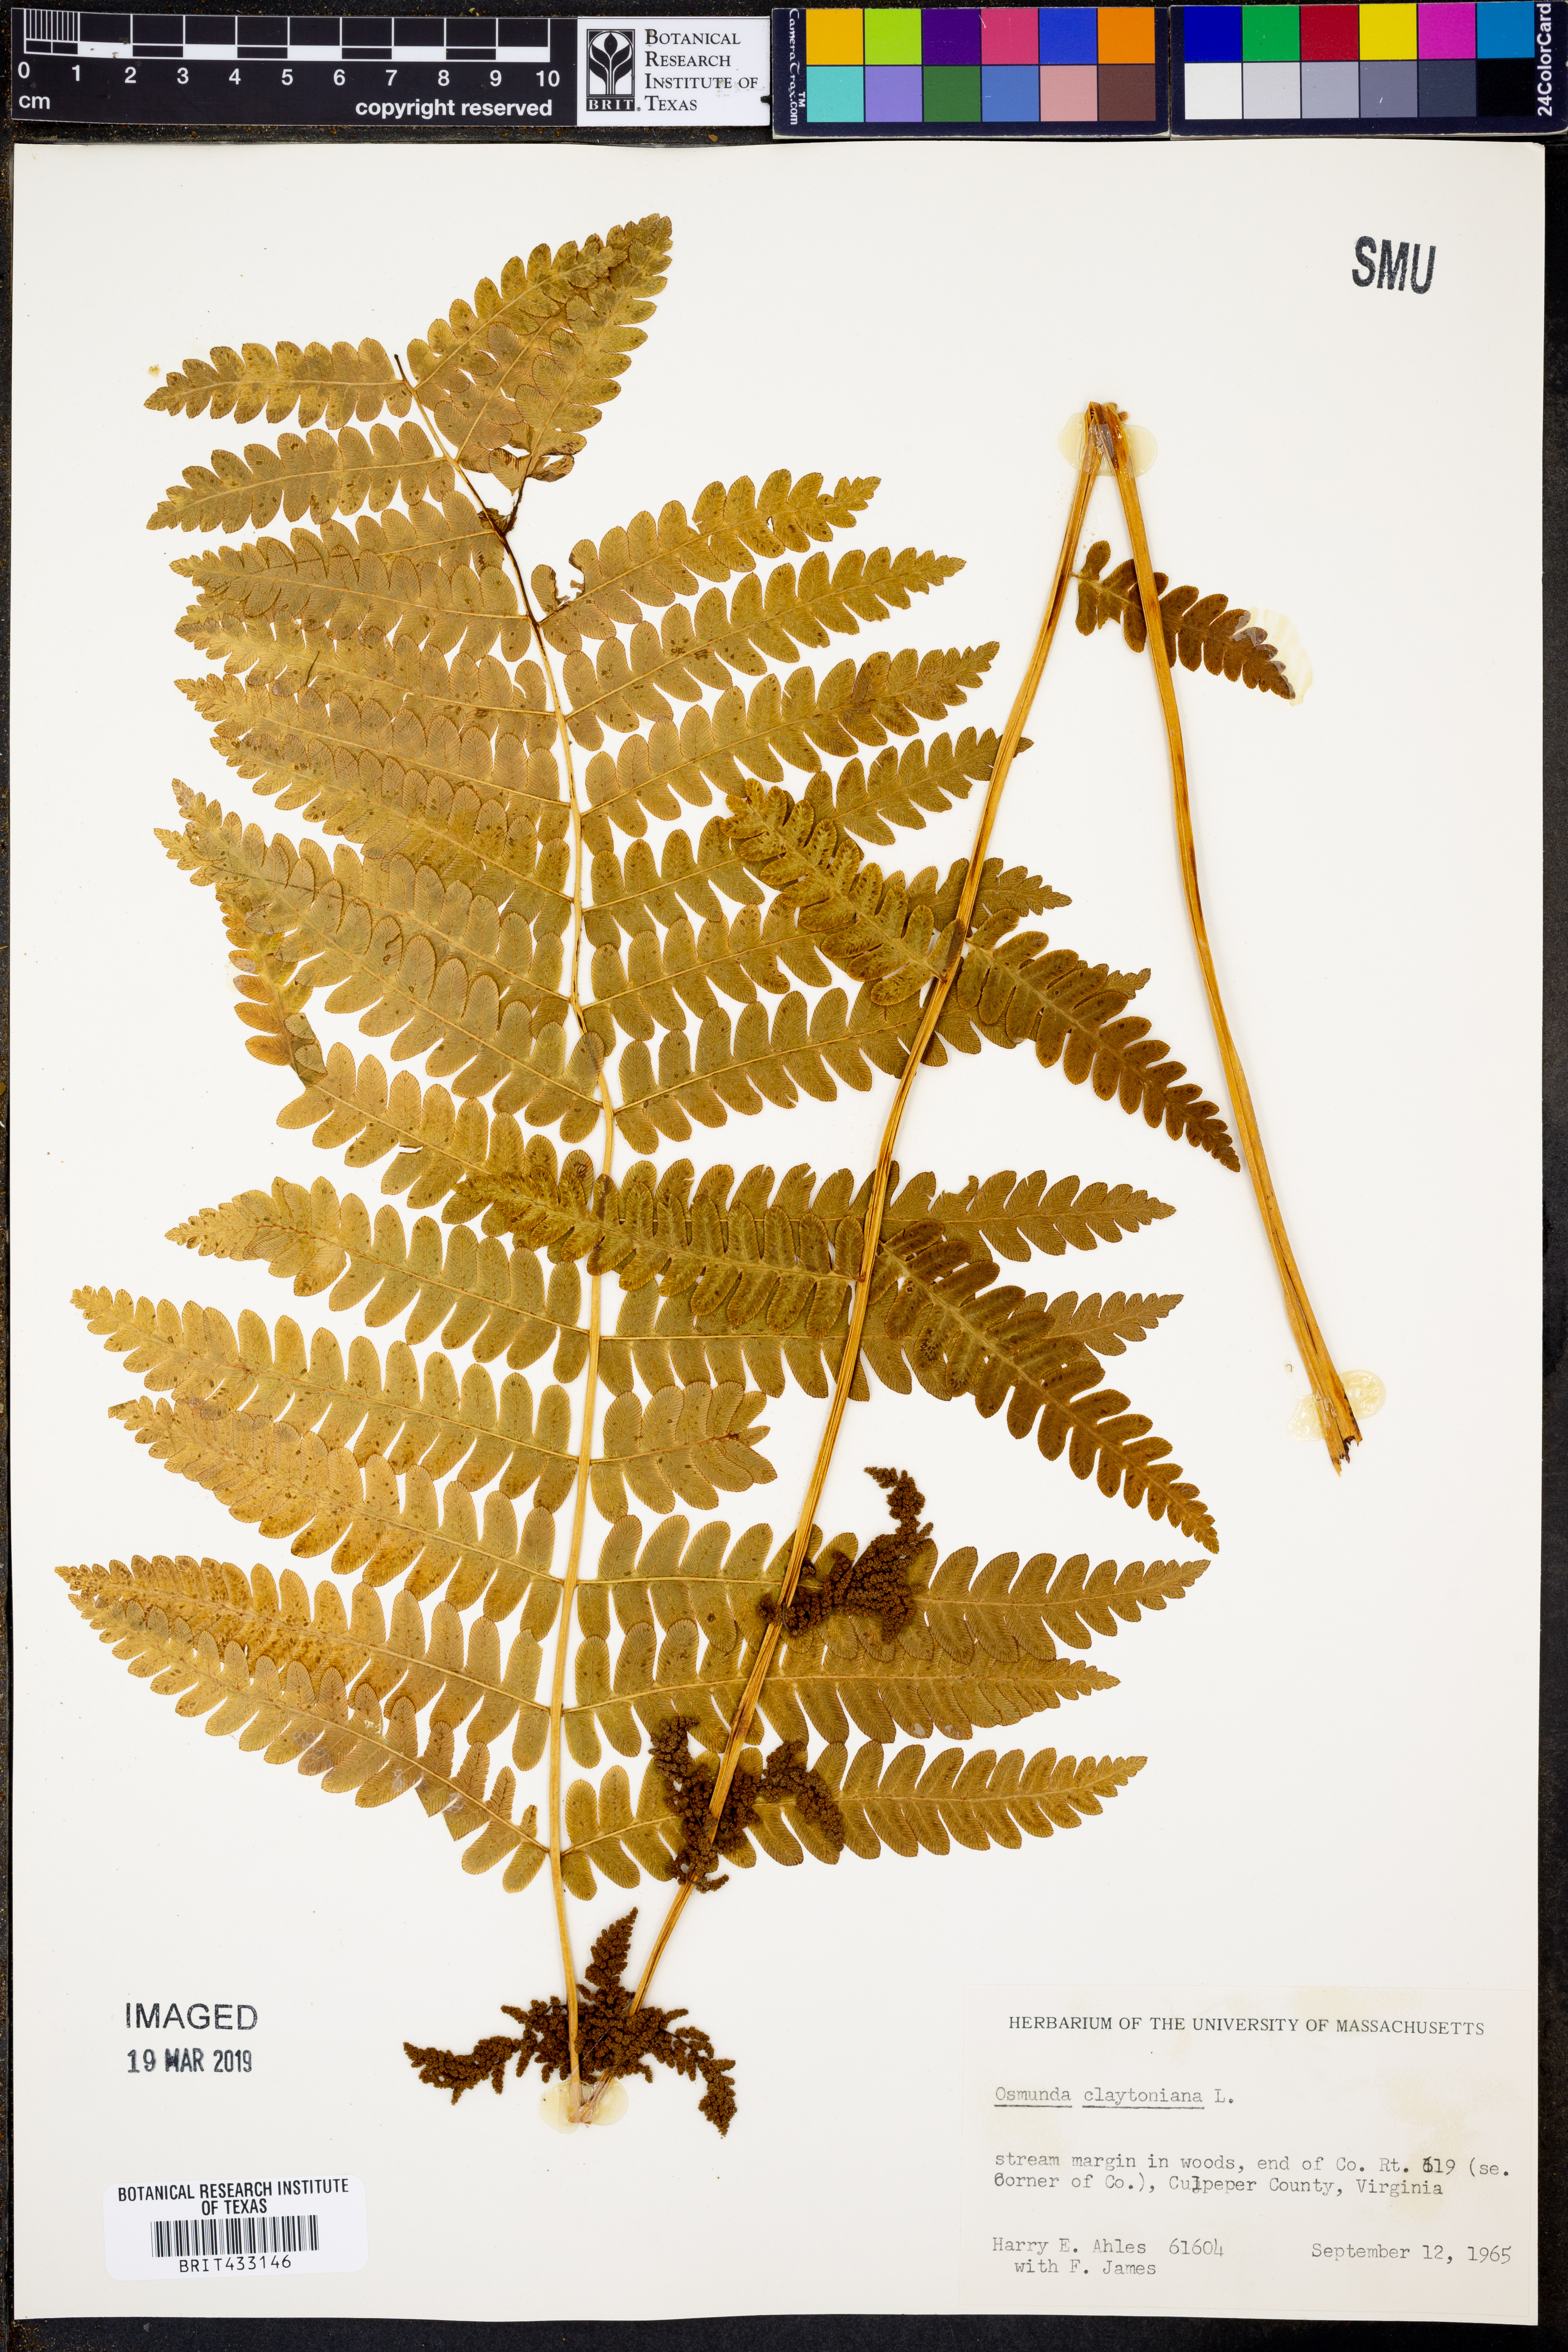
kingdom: Plantae
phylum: Tracheophyta
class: Polypodiopsida
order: Osmundales
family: Osmundaceae
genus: Claytosmunda
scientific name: Claytosmunda claytoniana
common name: Clayton's fern
